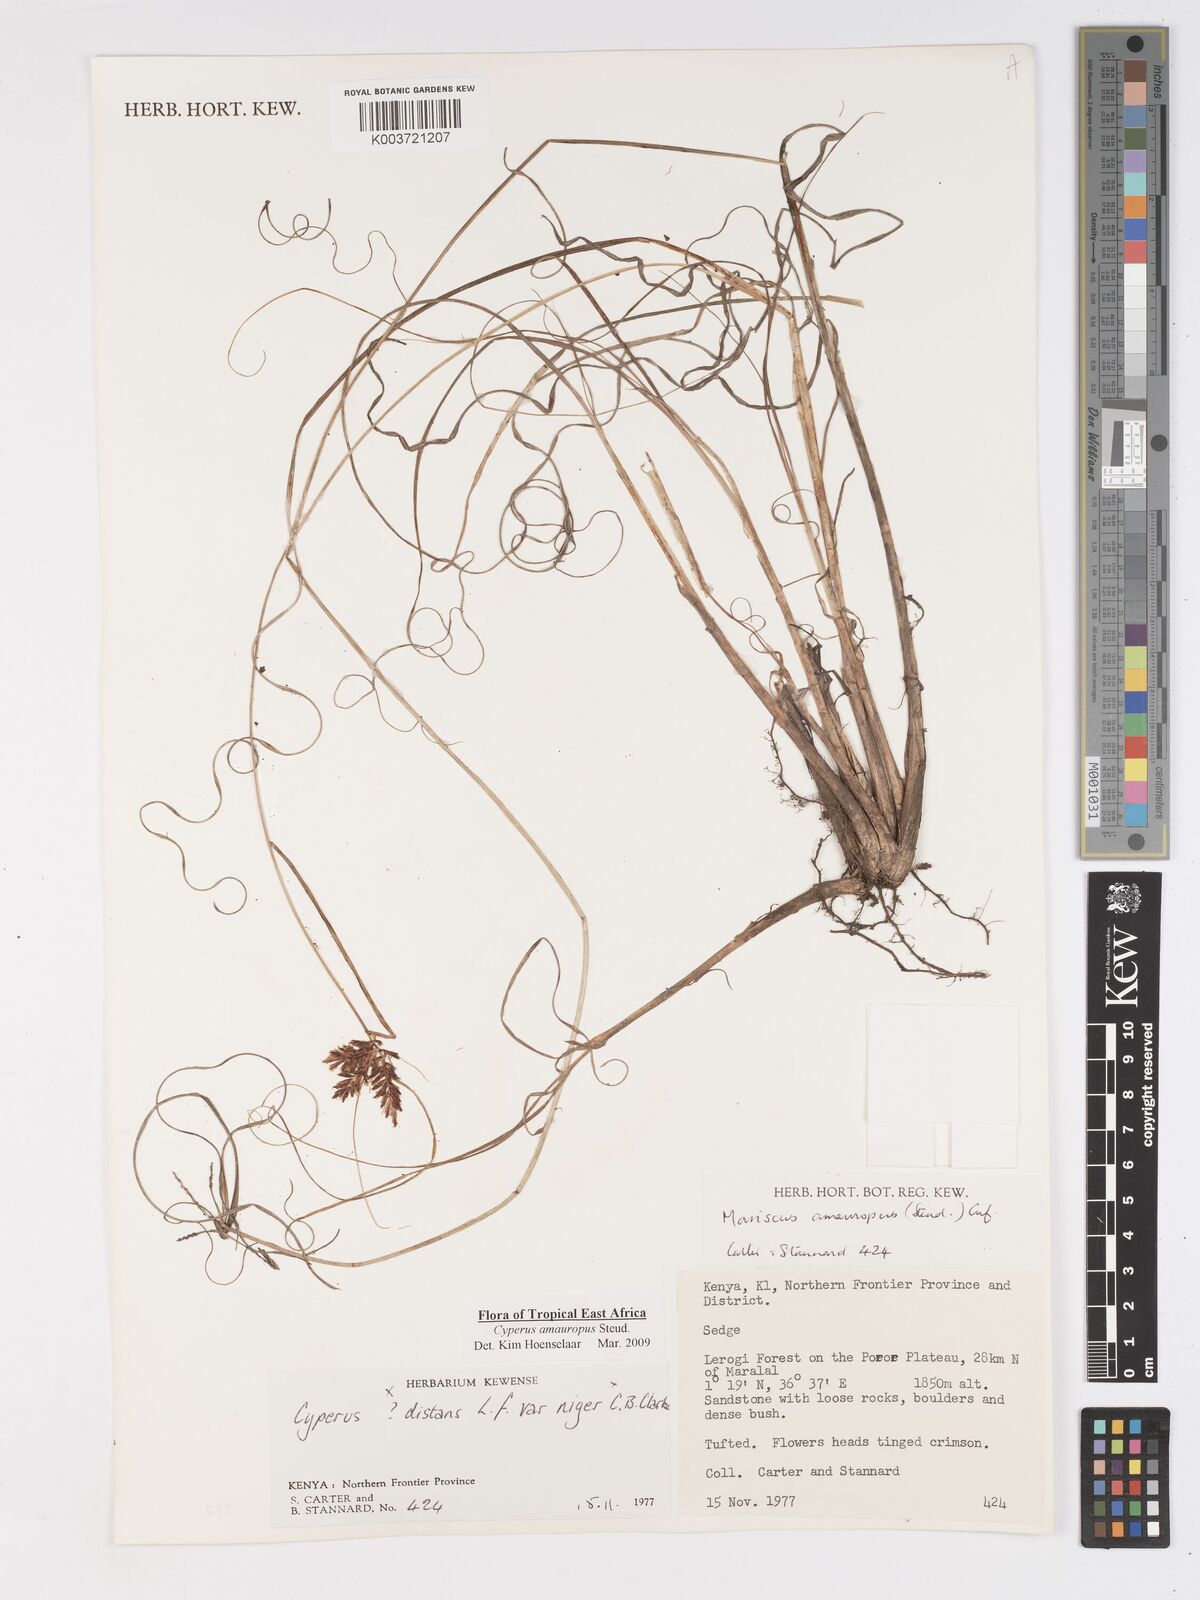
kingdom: Plantae
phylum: Tracheophyta
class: Liliopsida
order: Poales
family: Cyperaceae
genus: Cyperus
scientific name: Cyperus amauropus
